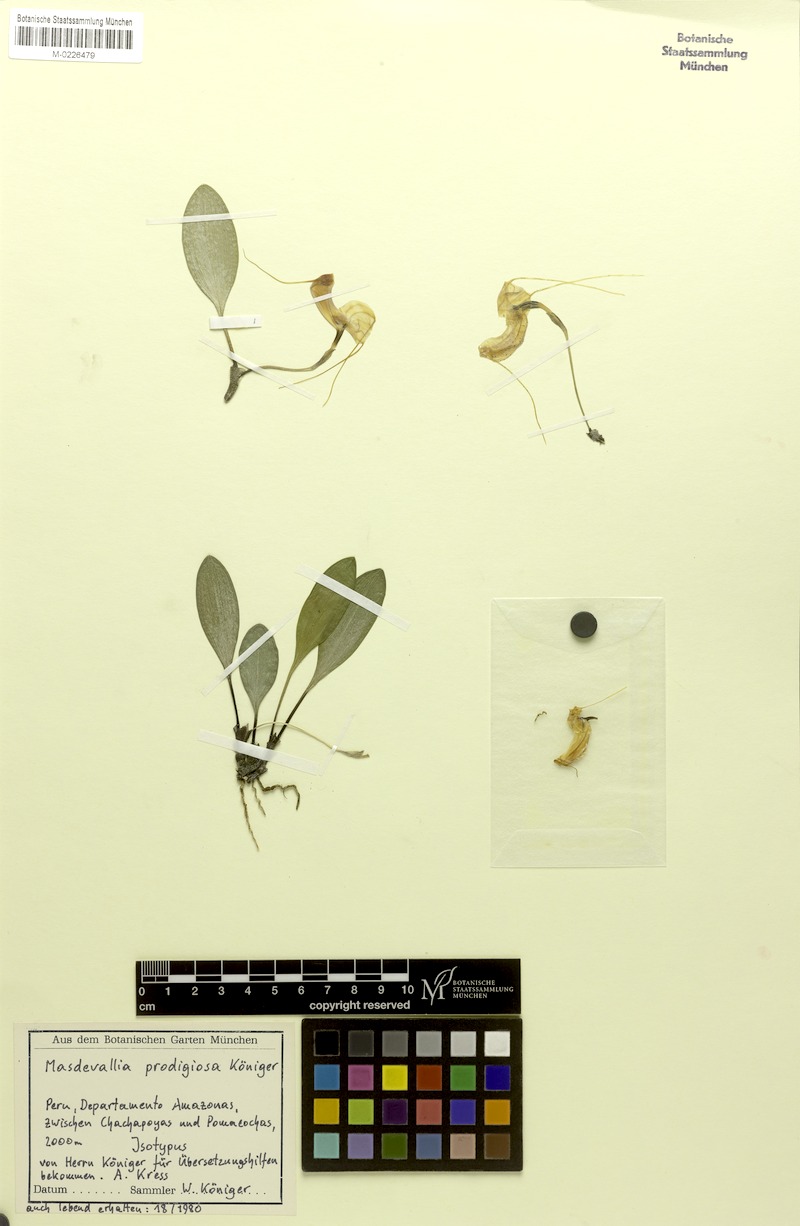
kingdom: Plantae
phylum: Tracheophyta
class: Liliopsida
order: Asparagales
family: Orchidaceae
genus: Masdevallia
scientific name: Masdevallia prodigiosa
